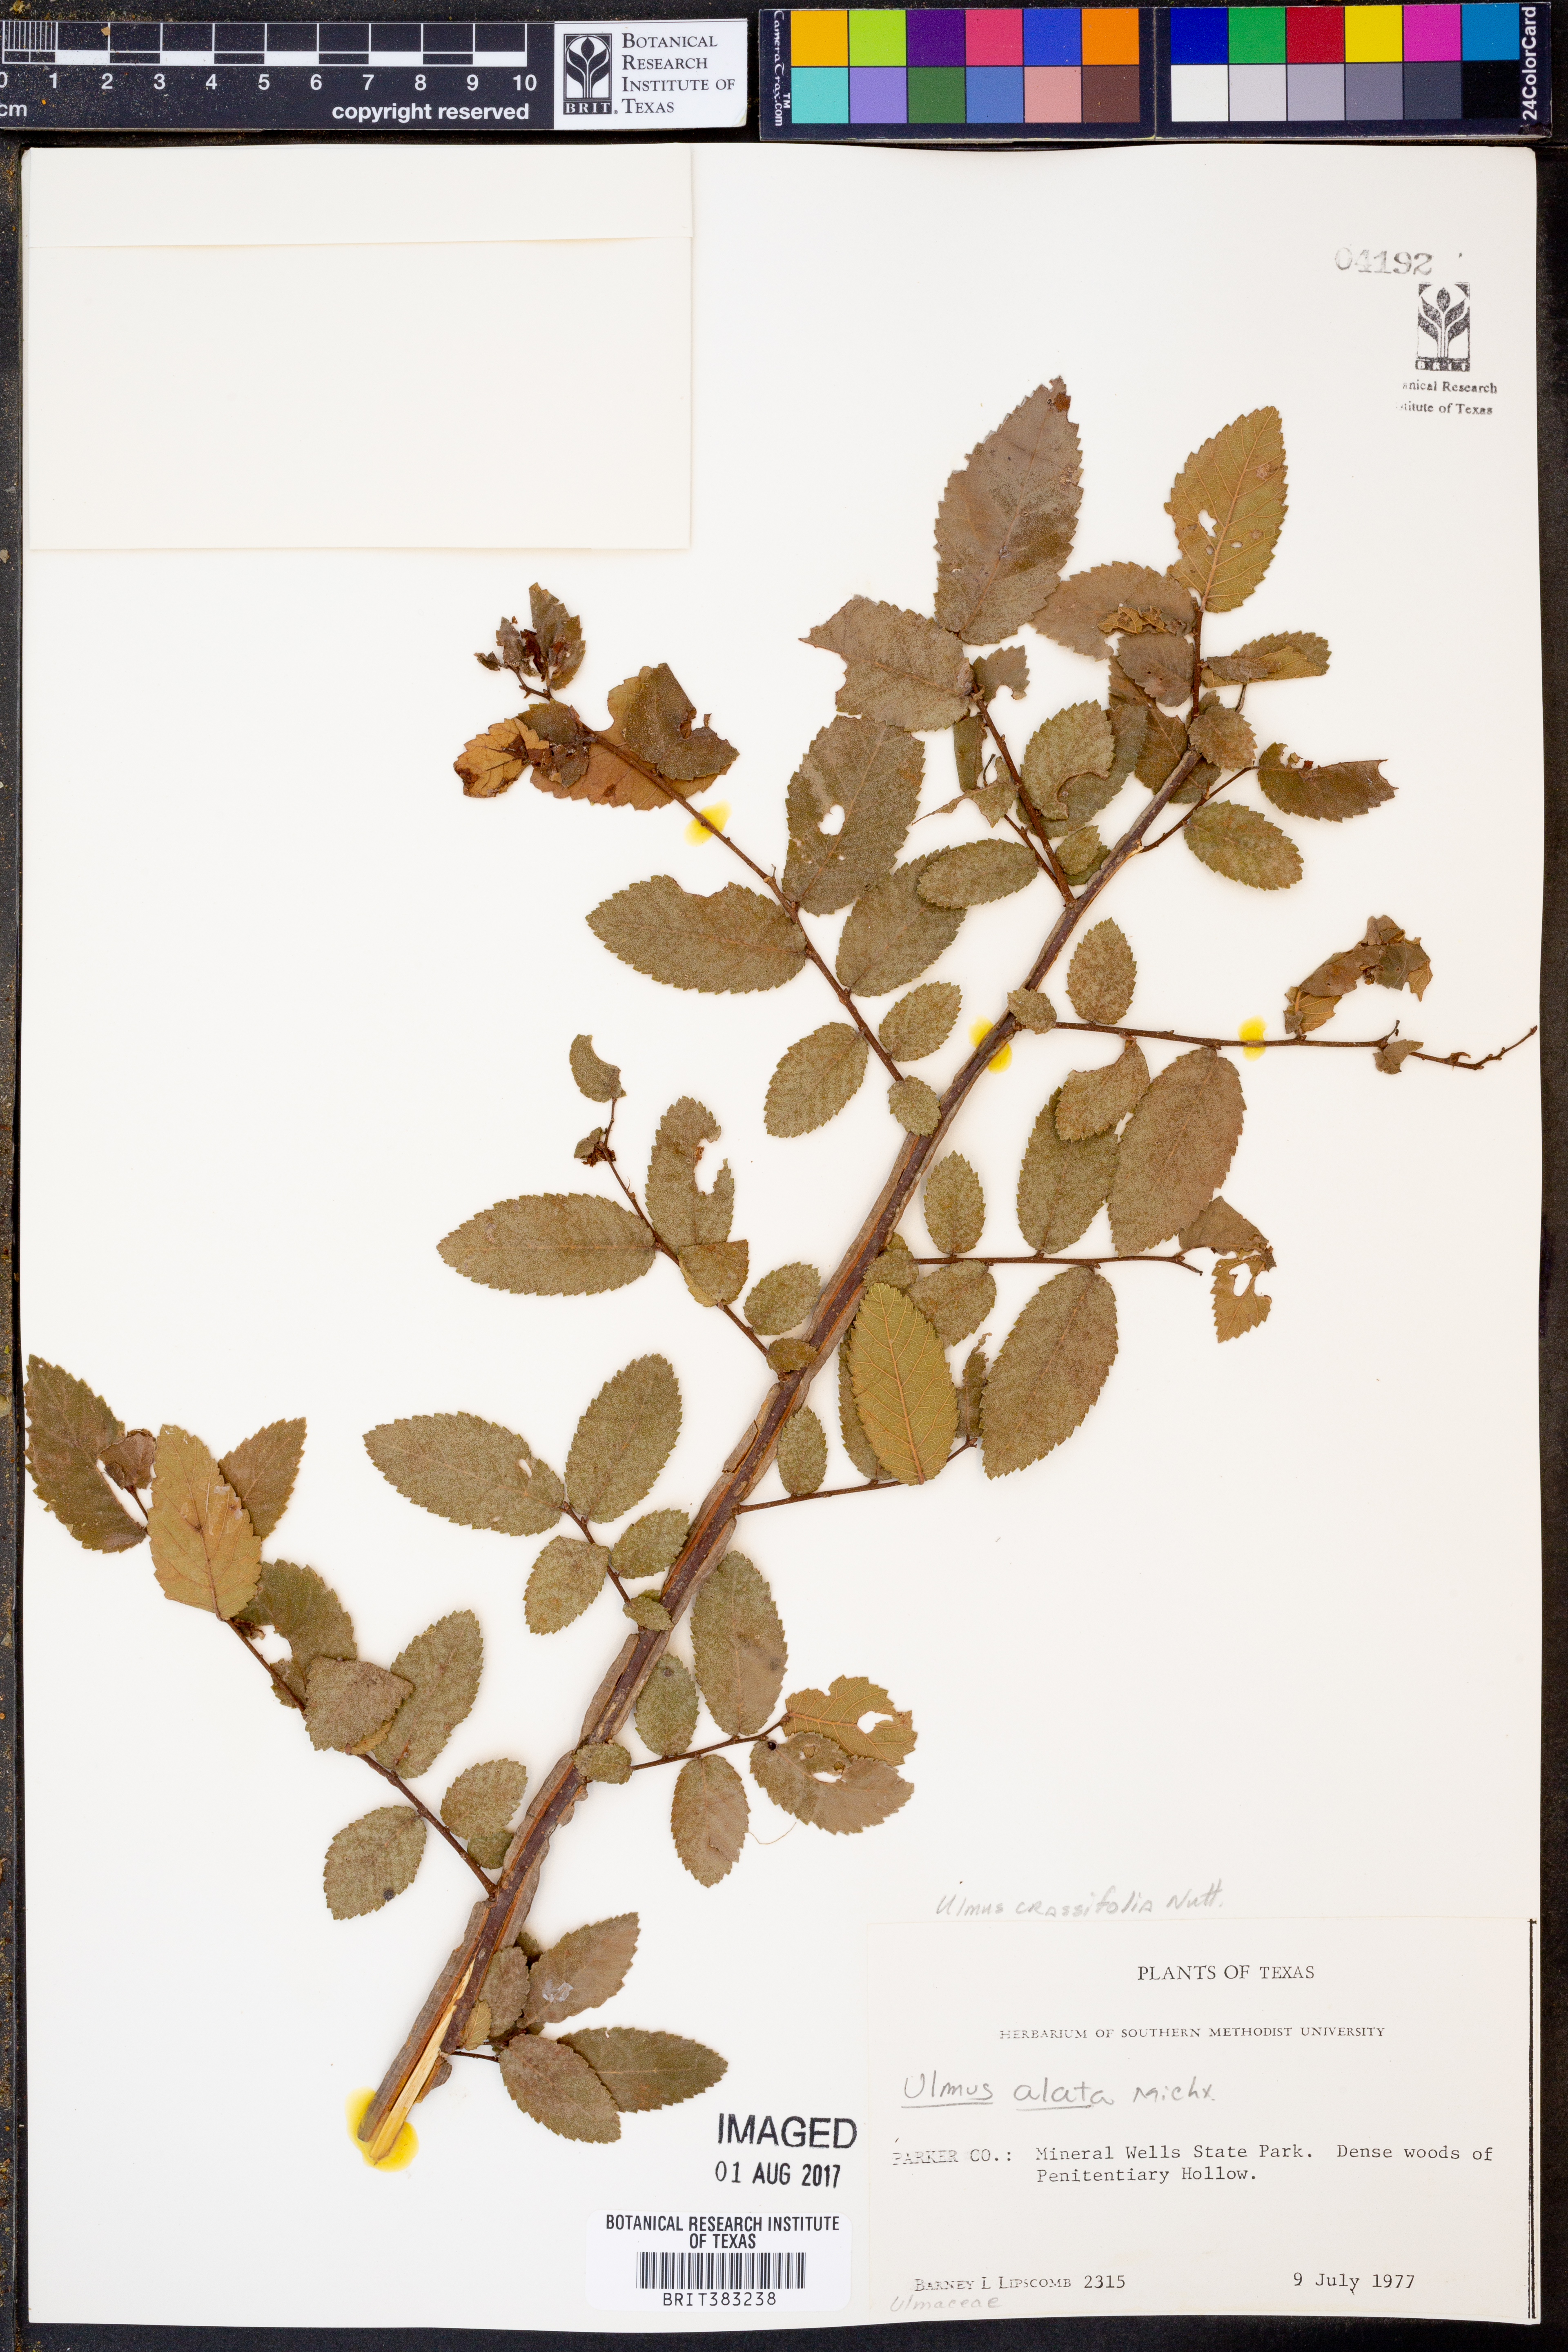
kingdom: Plantae
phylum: Tracheophyta
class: Magnoliopsida
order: Rosales
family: Ulmaceae
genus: Ulmus
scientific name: Ulmus crassifolia
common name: Basket elm
